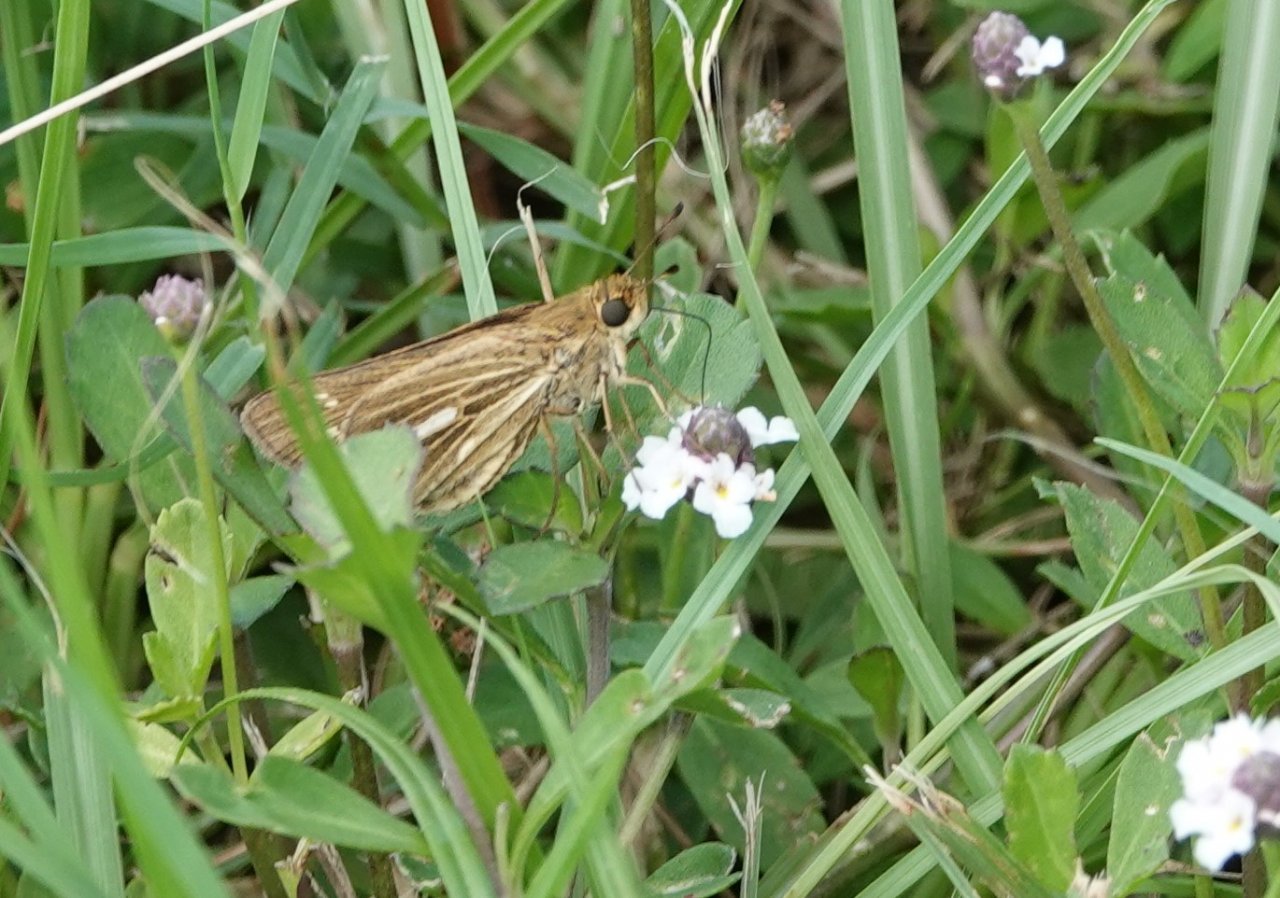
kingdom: Animalia
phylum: Arthropoda
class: Insecta
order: Lepidoptera
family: Hesperiidae
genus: Panoquina
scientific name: Panoquina panoquin
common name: Salt Marsh Skipper
